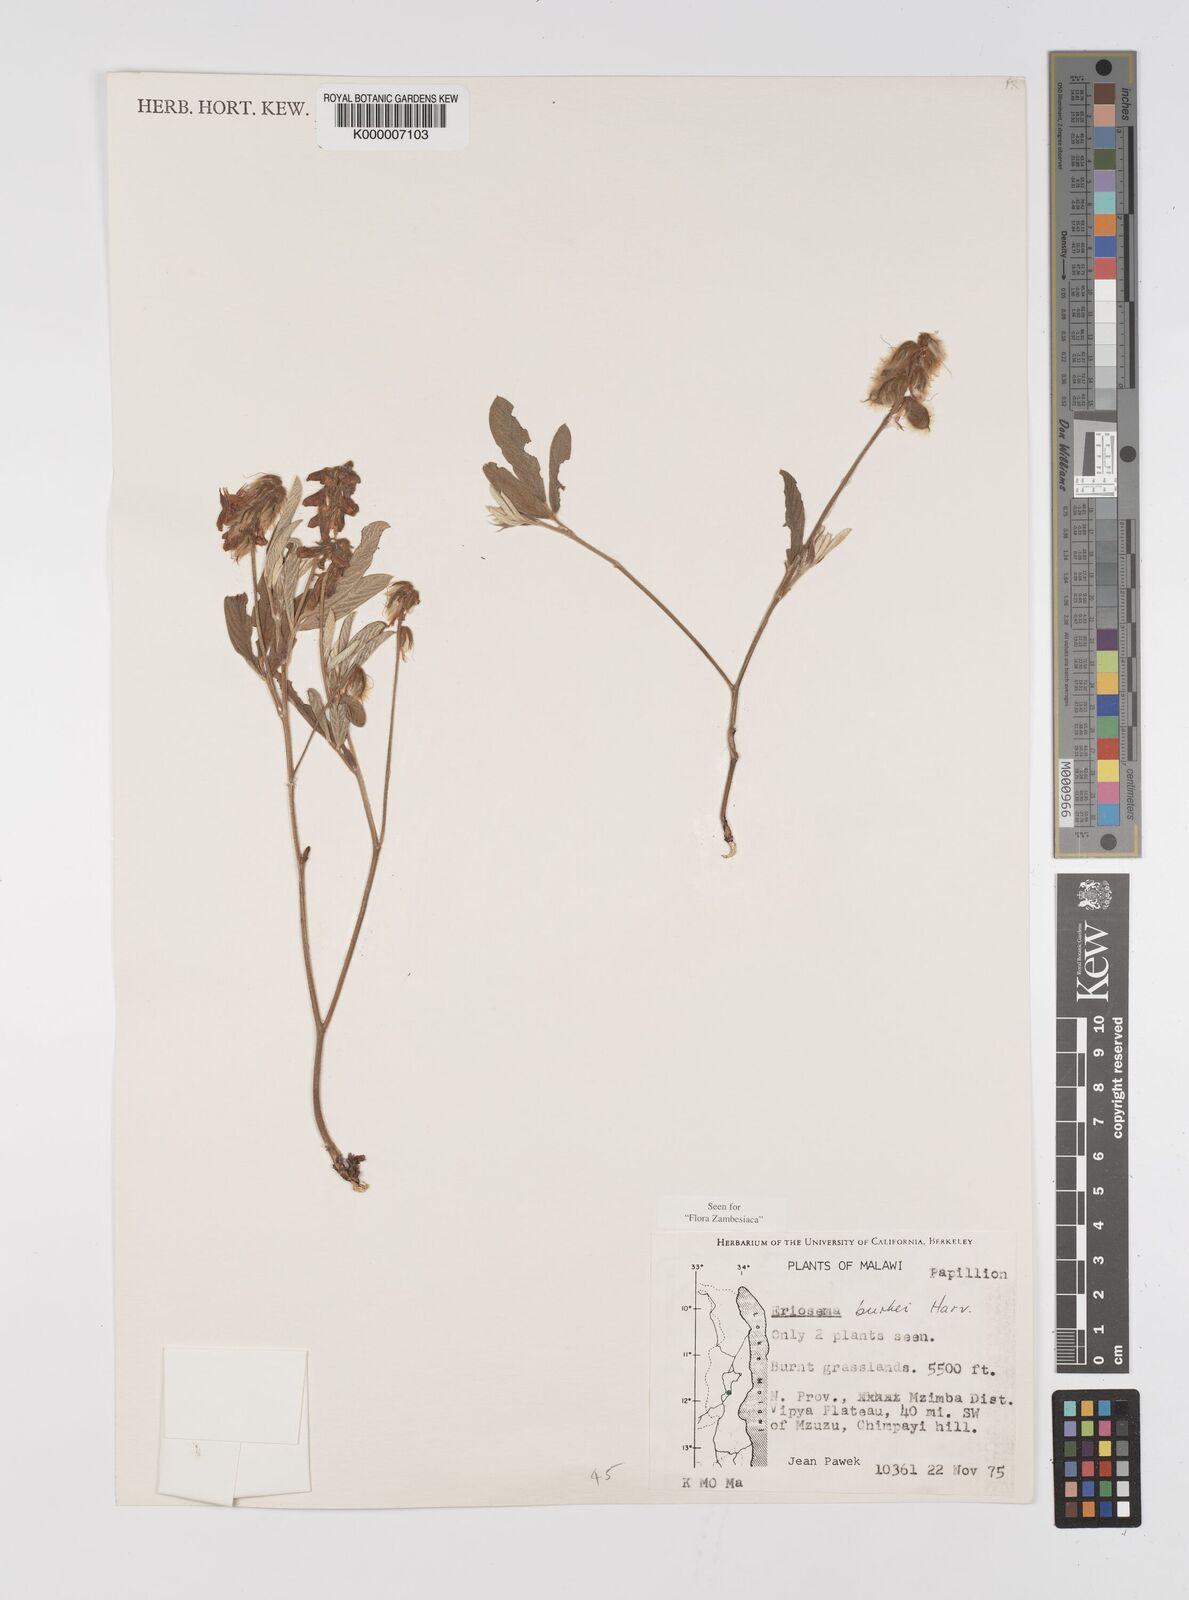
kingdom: Plantae
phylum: Tracheophyta
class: Magnoliopsida
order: Fabales
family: Fabaceae
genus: Eriosema
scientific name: Eriosema burkei
